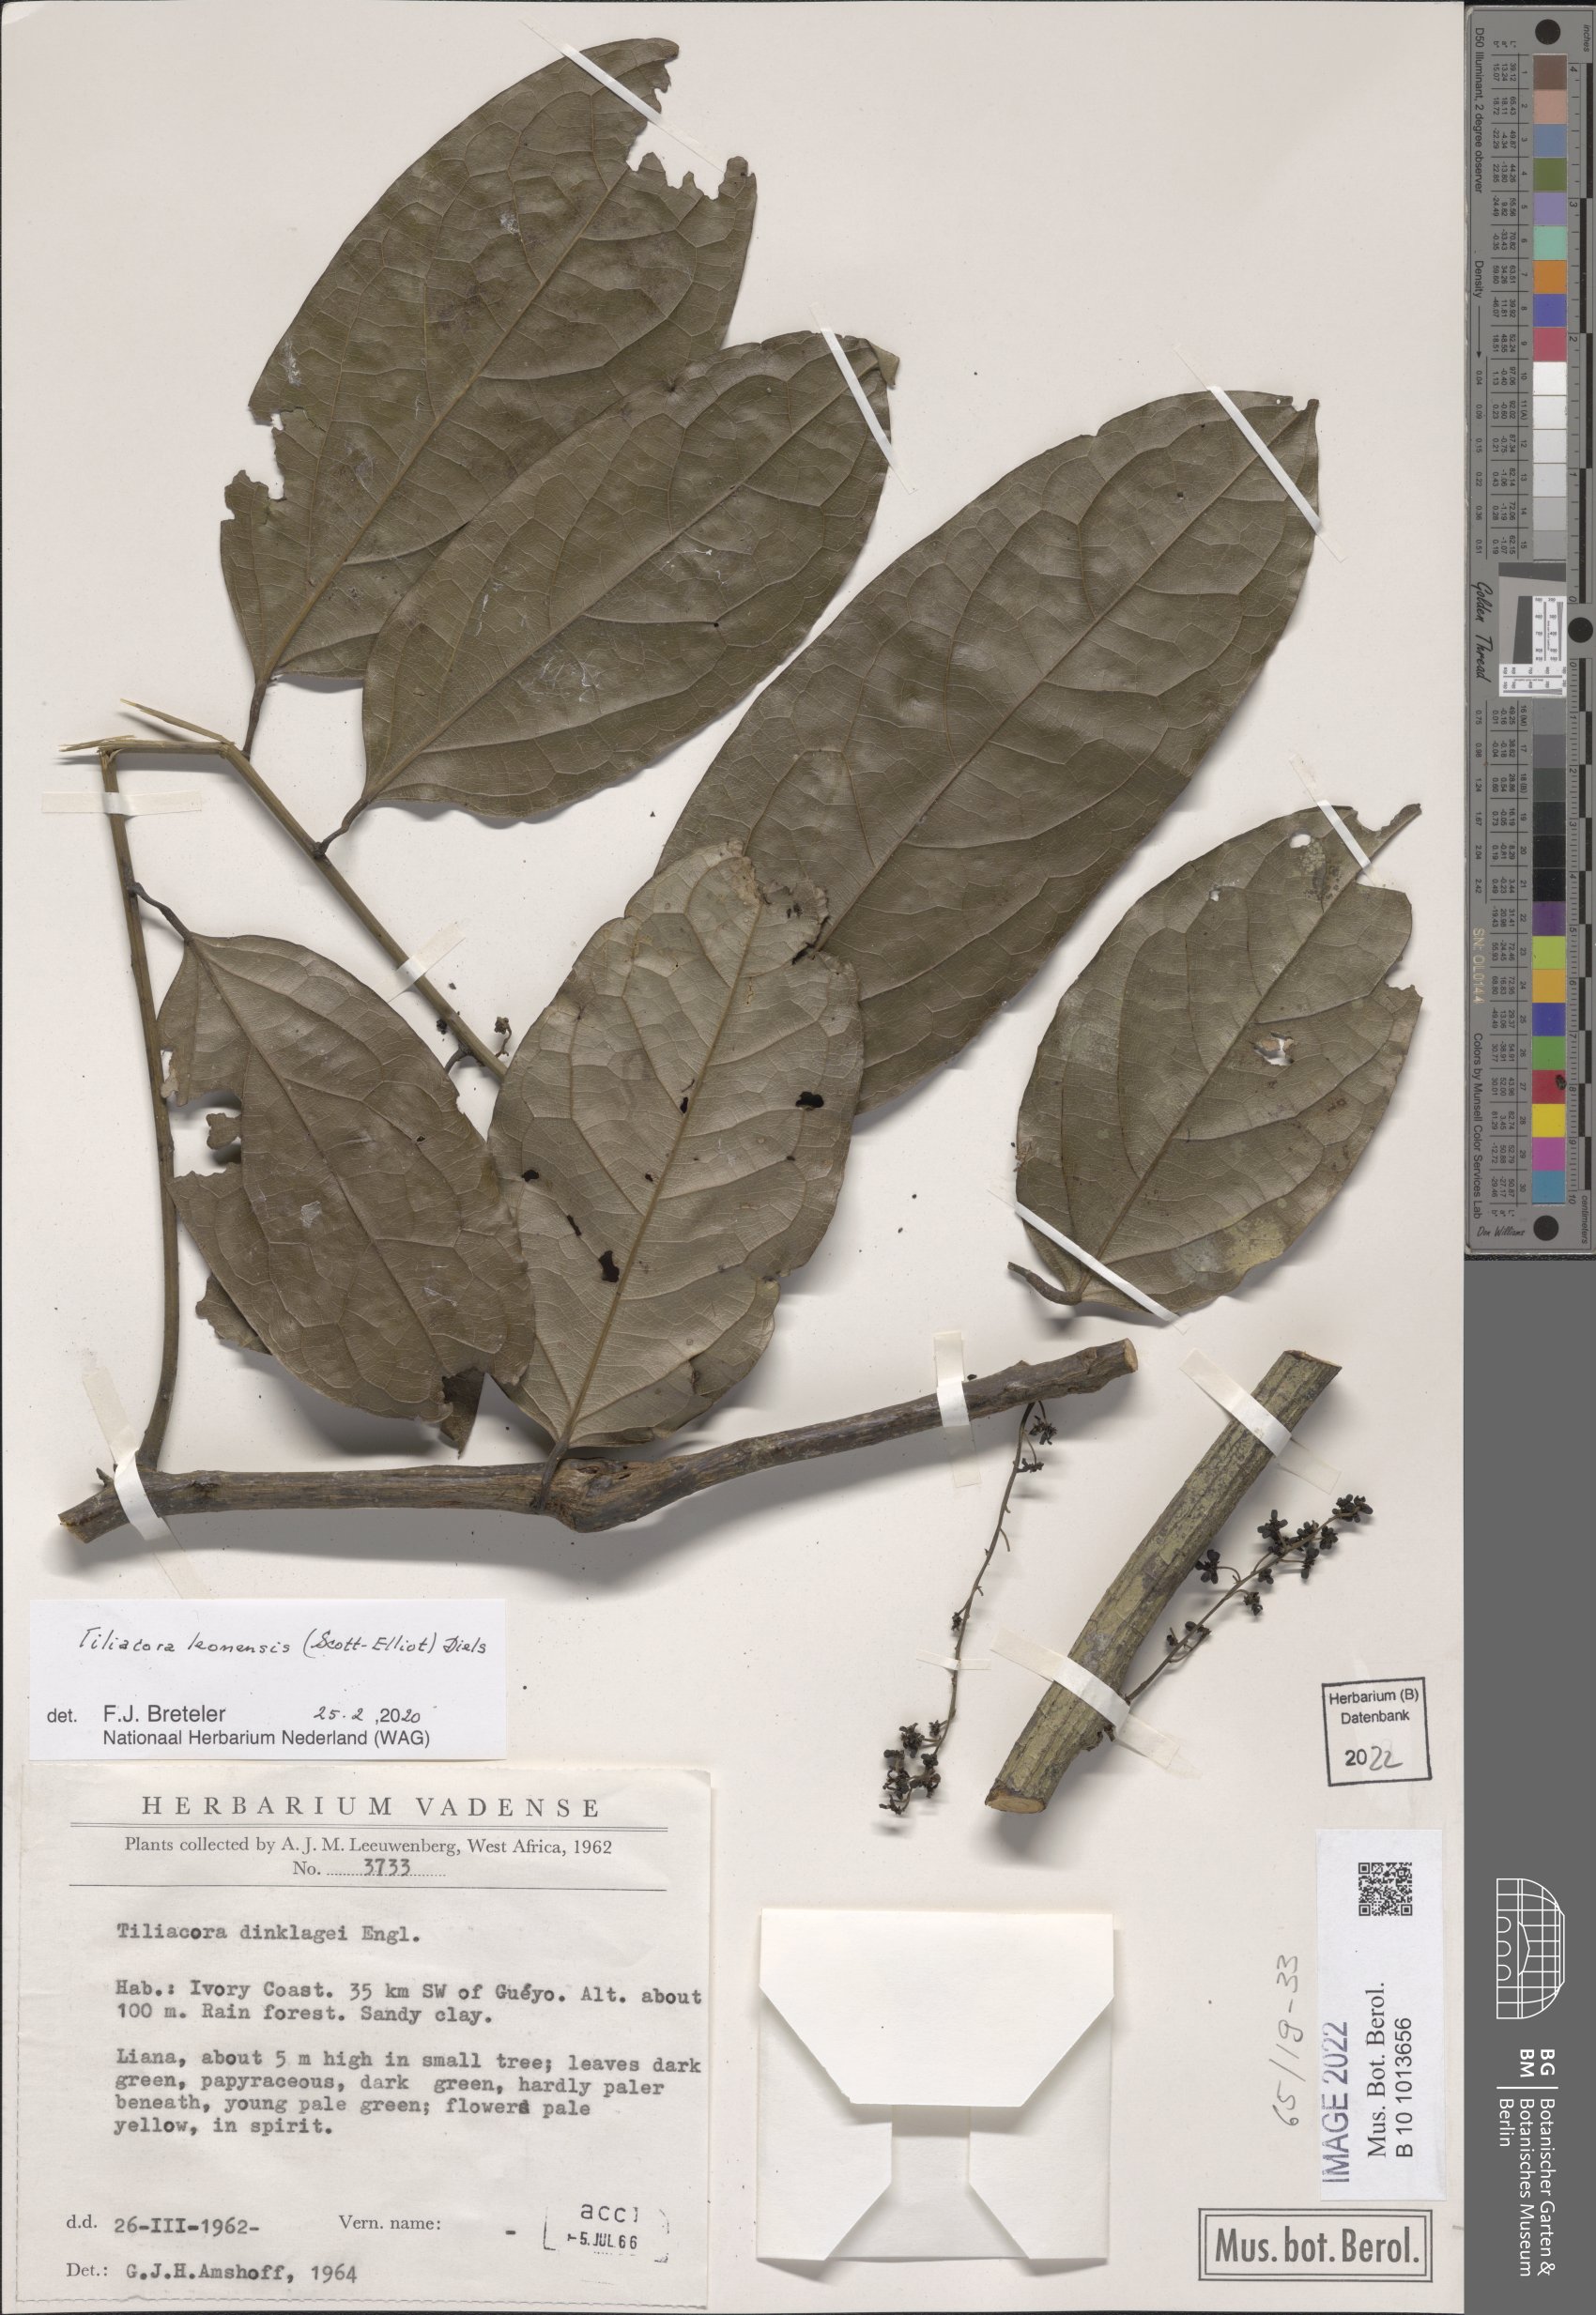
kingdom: Plantae
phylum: Tracheophyta
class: Magnoliopsida
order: Ranunculales
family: Menispermaceae
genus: Tiliacora
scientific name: Tiliacora leonensis
